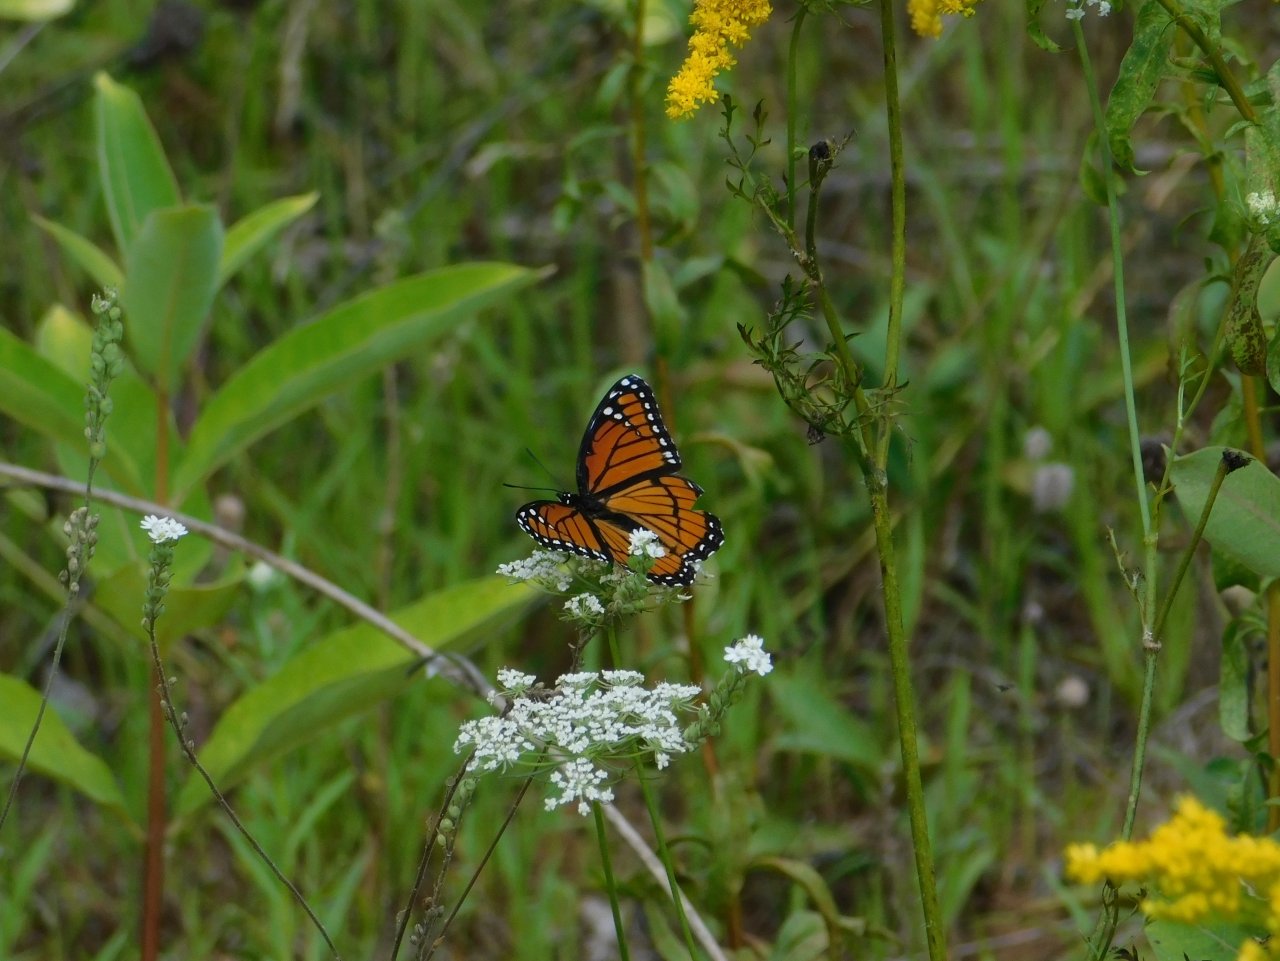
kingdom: Animalia
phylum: Arthropoda
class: Insecta
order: Lepidoptera
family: Nymphalidae
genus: Limenitis
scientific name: Limenitis archippus
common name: Viceroy
